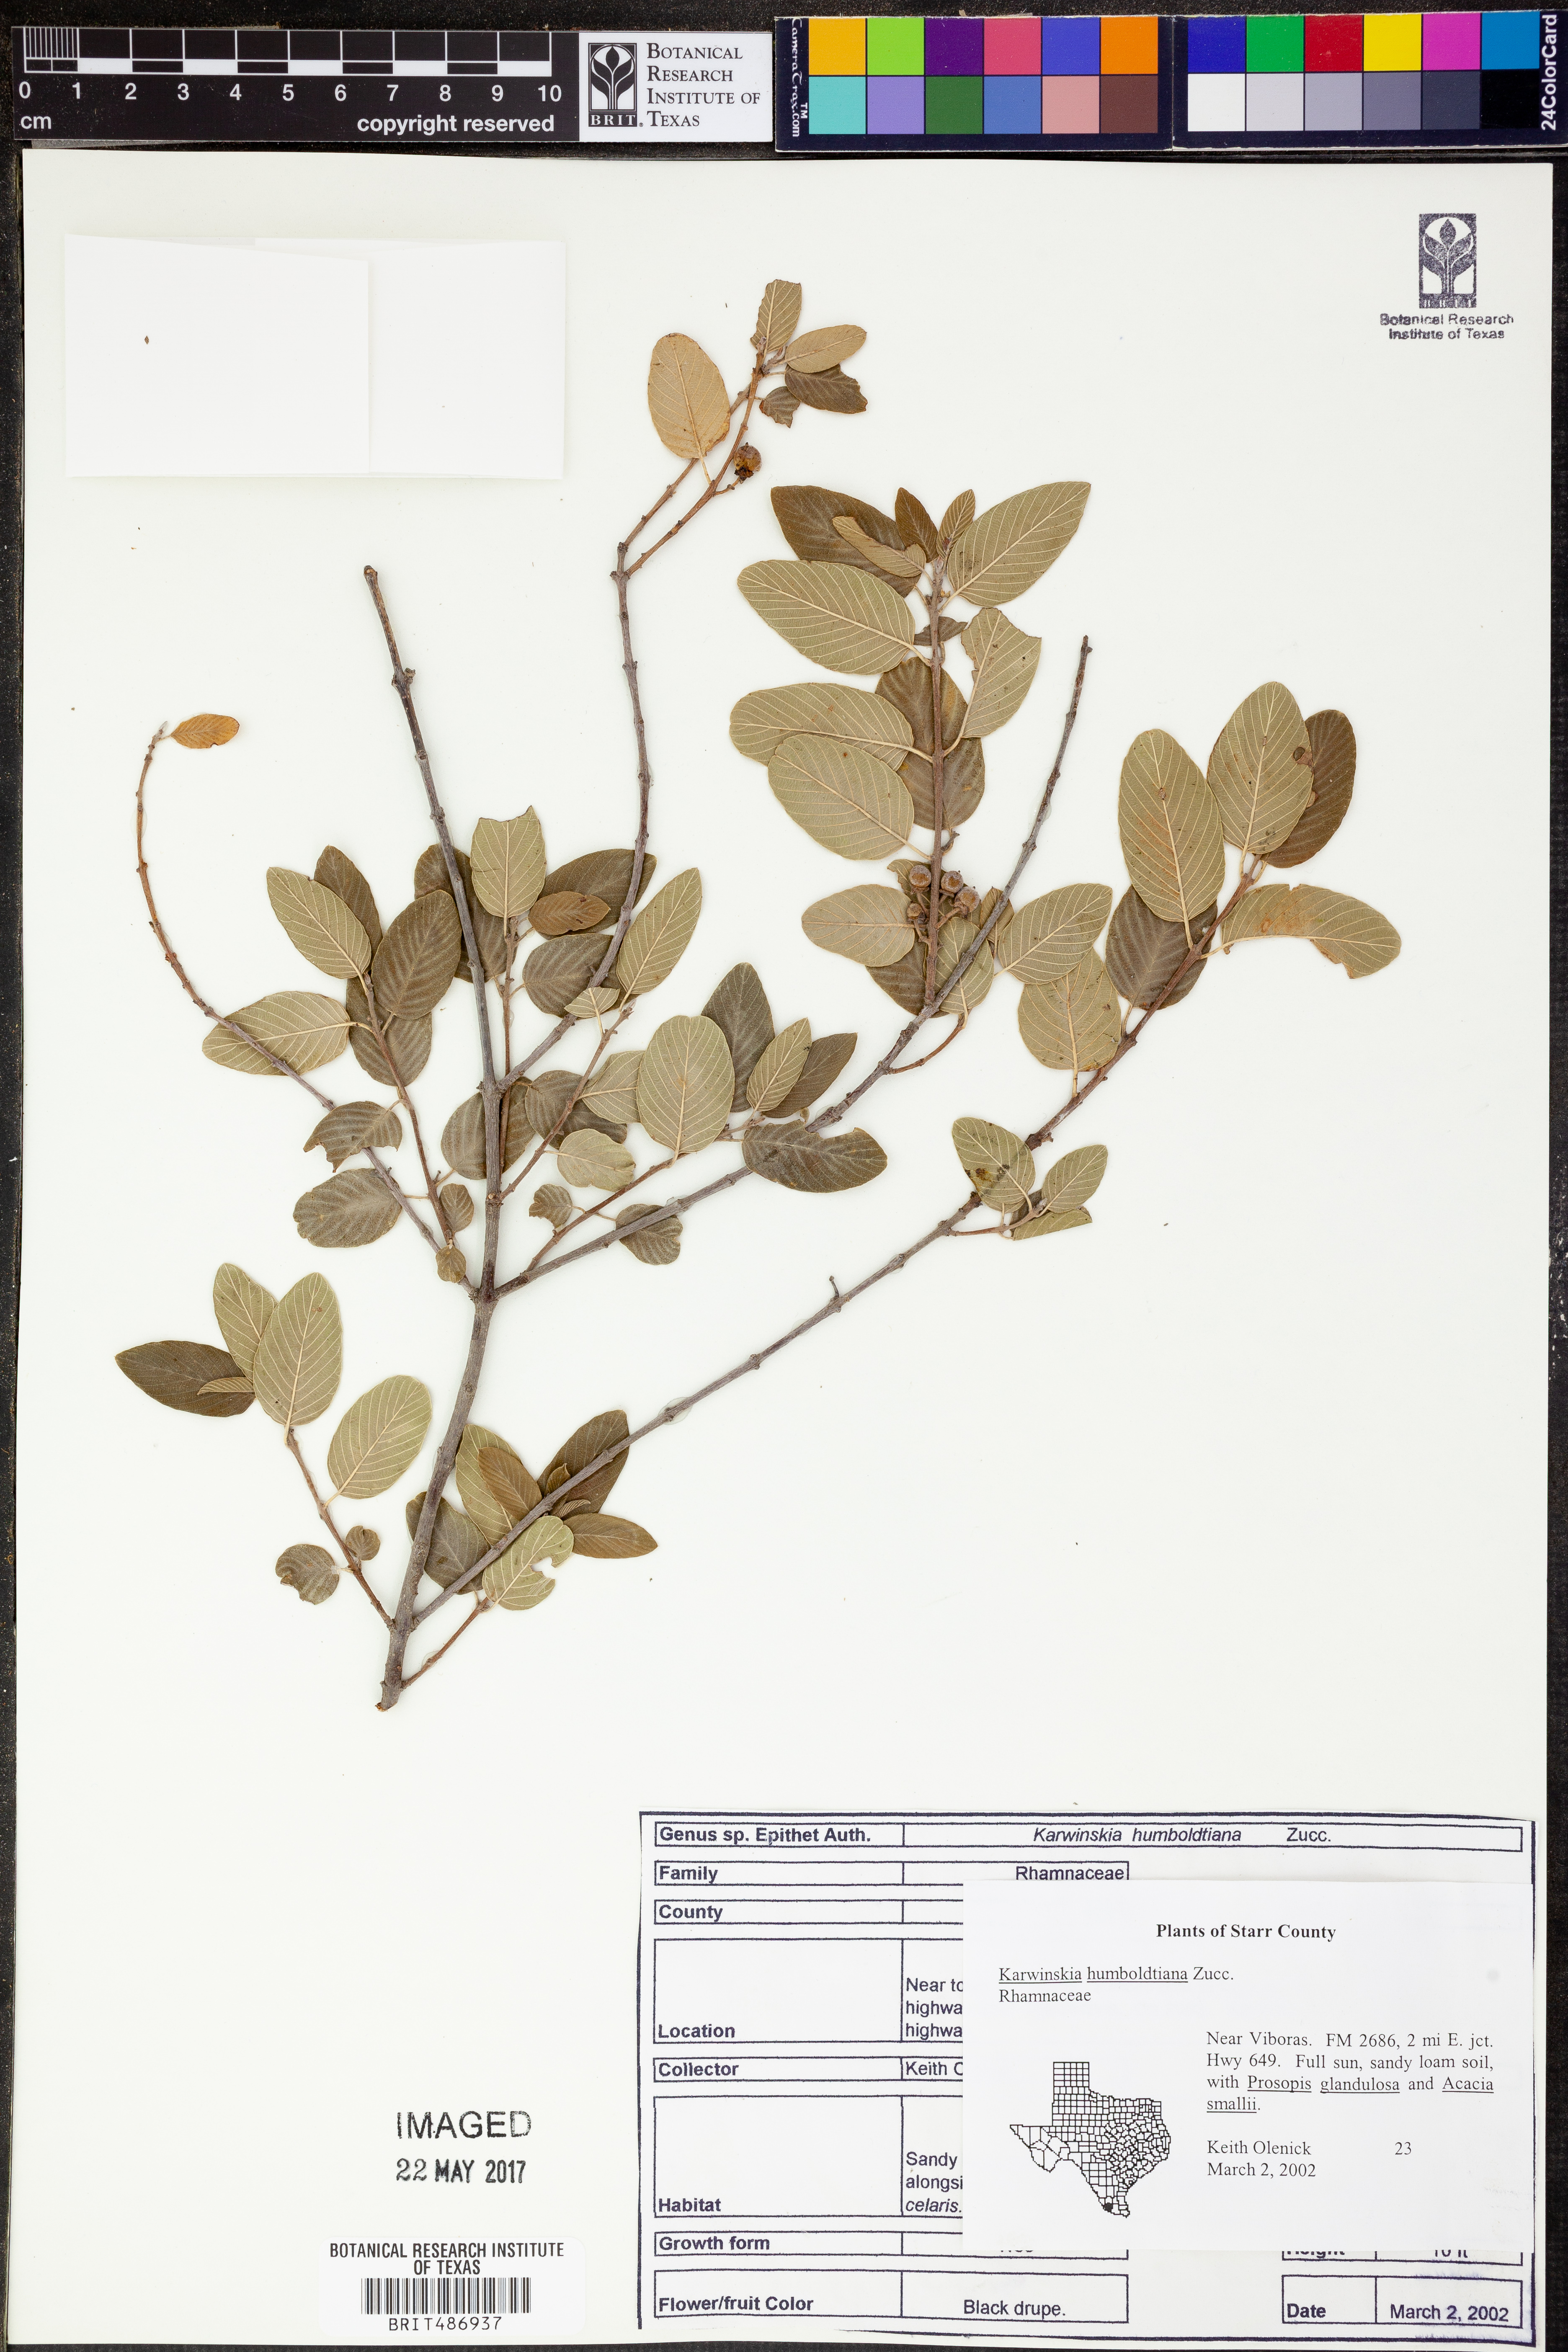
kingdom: Plantae
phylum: Tracheophyta
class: Magnoliopsida
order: Rosales
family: Rhamnaceae
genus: Karwinskia
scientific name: Karwinskia humboldtiana
